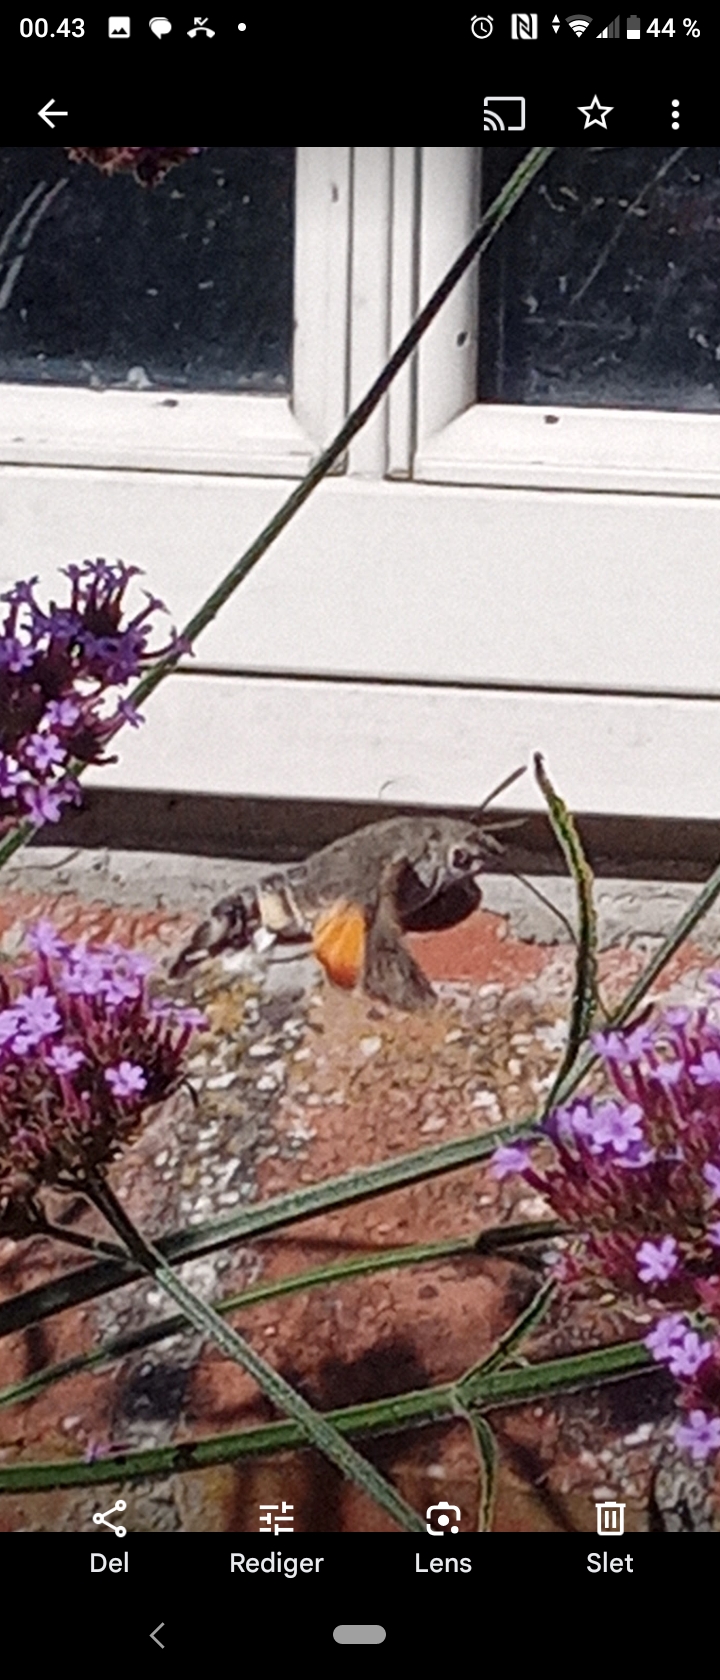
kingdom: Animalia
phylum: Arthropoda
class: Insecta
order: Lepidoptera
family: Sphingidae
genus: Macroglossum
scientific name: Macroglossum stellatarum
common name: Duehale
